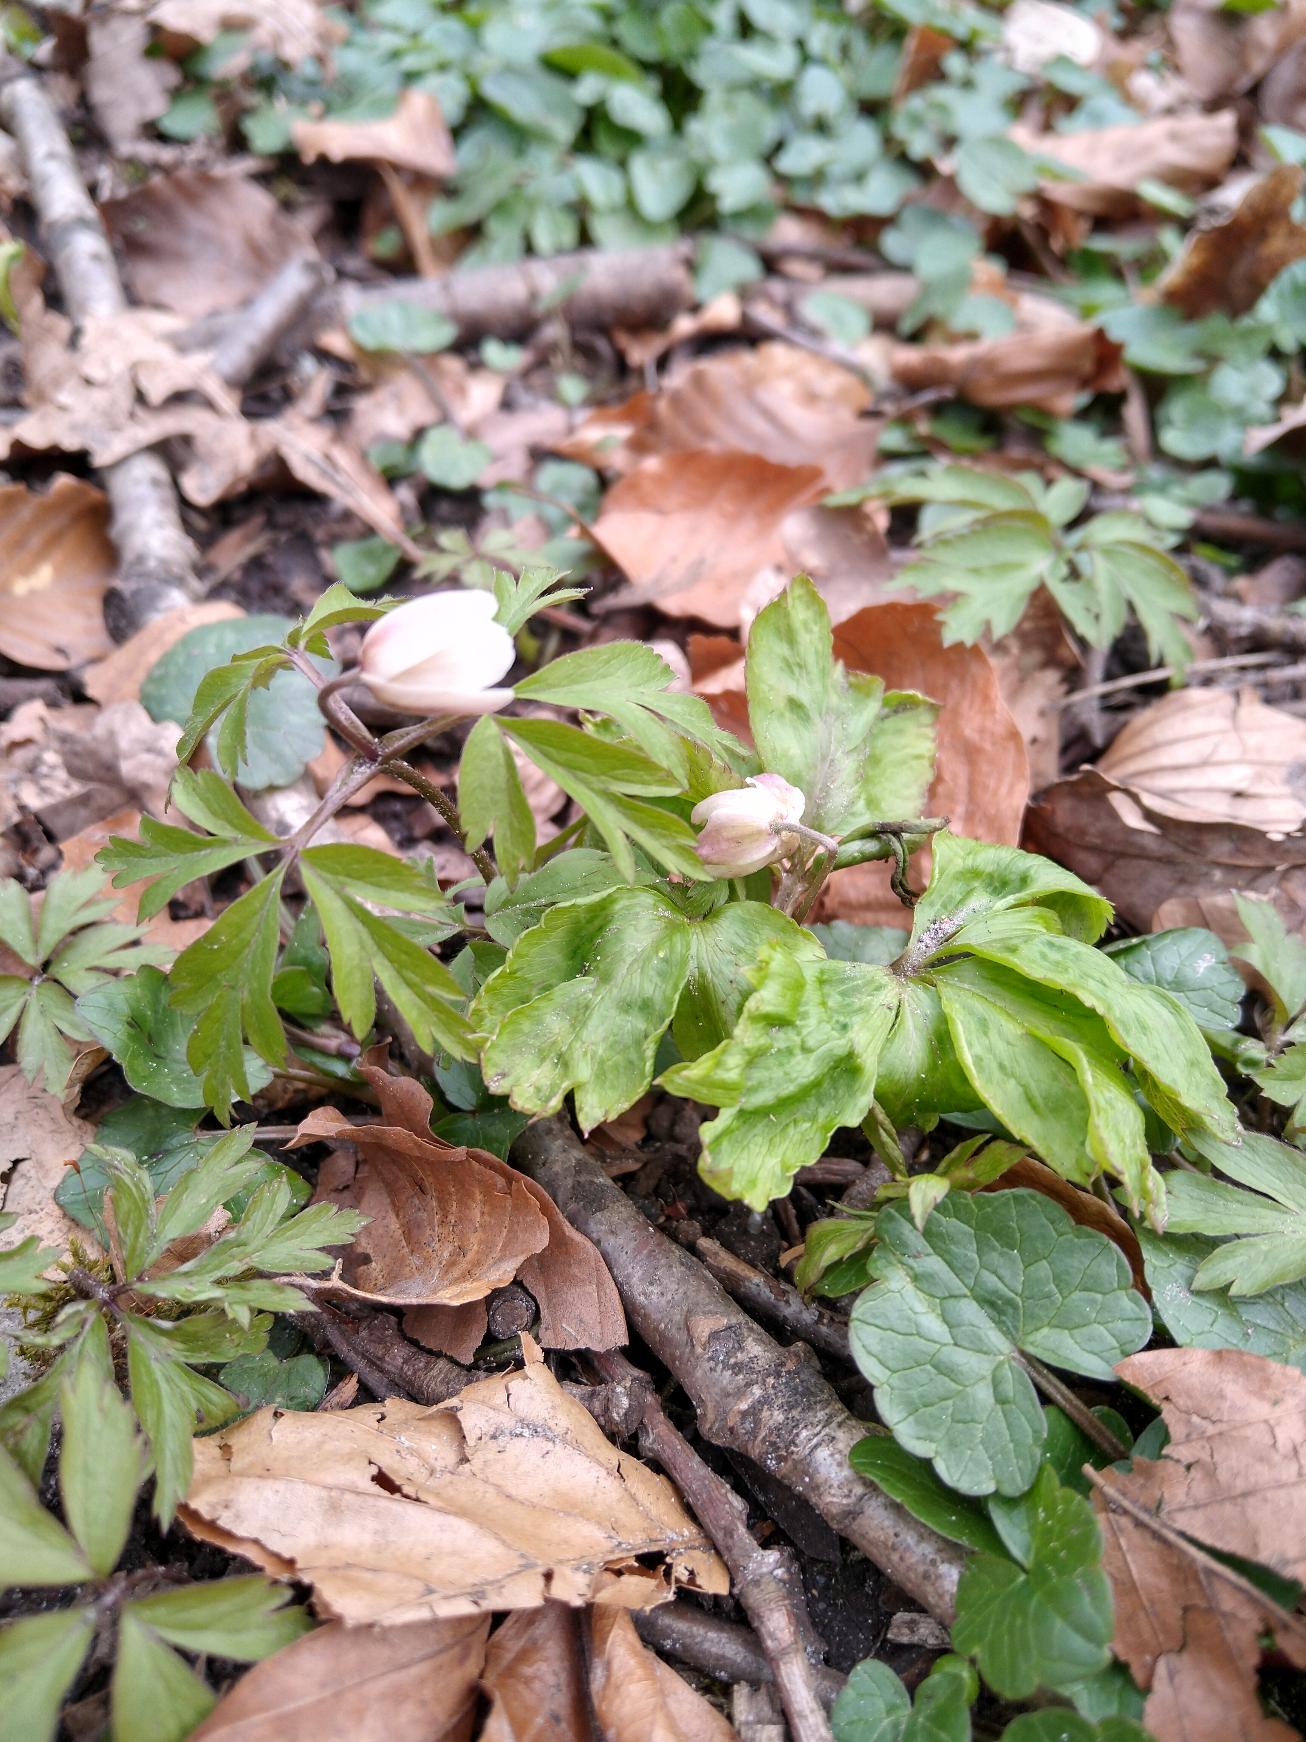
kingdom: Plantae
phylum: Tracheophyta
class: Magnoliopsida
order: Ranunculales
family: Ranunculaceae
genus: Anemone
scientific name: Anemone nemorosa
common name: Hvid anemone
